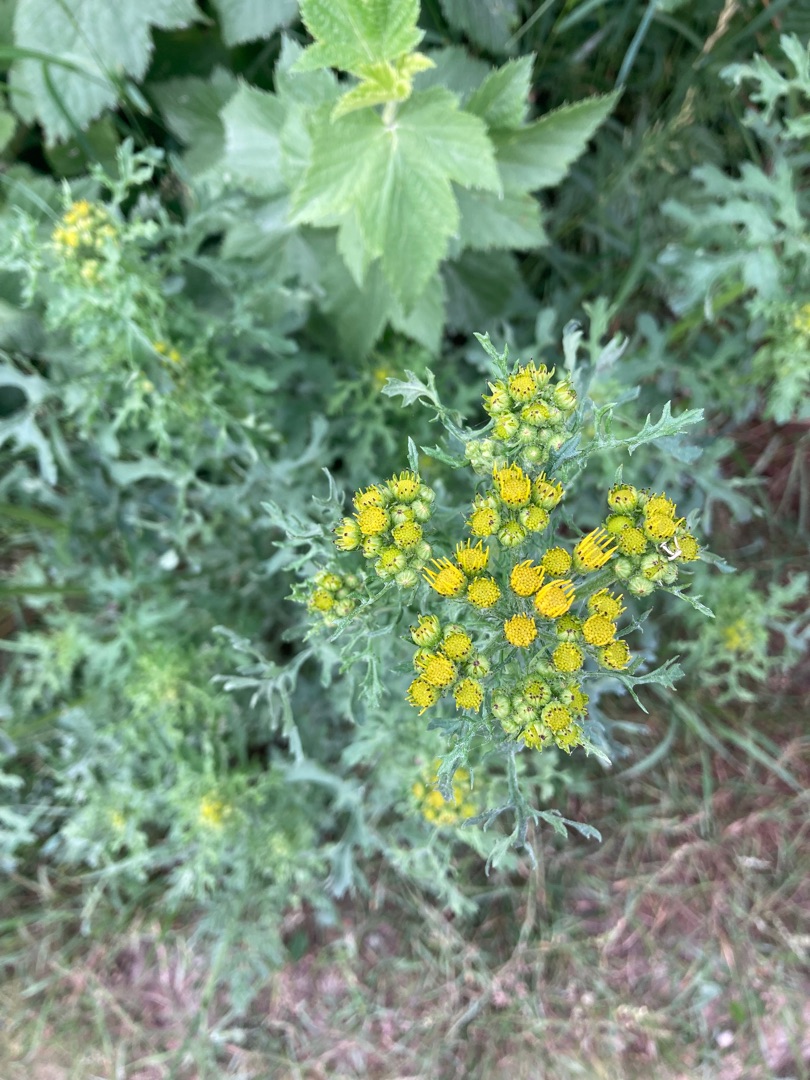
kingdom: Plantae
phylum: Tracheophyta
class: Magnoliopsida
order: Asterales
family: Asteraceae
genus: Jacobaea
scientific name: Jacobaea vulgaris
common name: Eng-brandbæger
